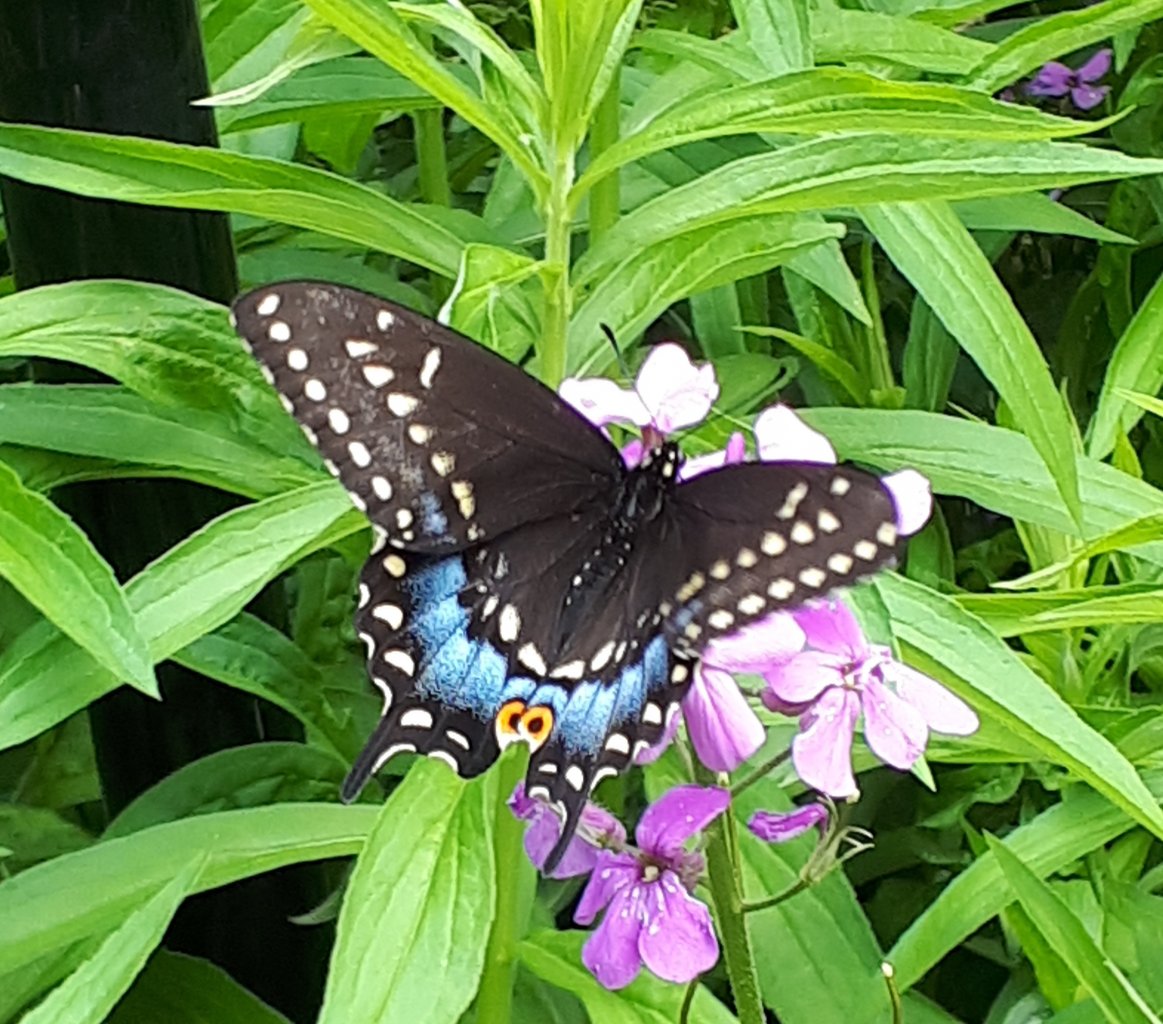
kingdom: Animalia
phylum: Arthropoda
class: Insecta
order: Lepidoptera
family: Papilionidae
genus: Papilio
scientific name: Papilio polyxenes
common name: Black Swallowtail
